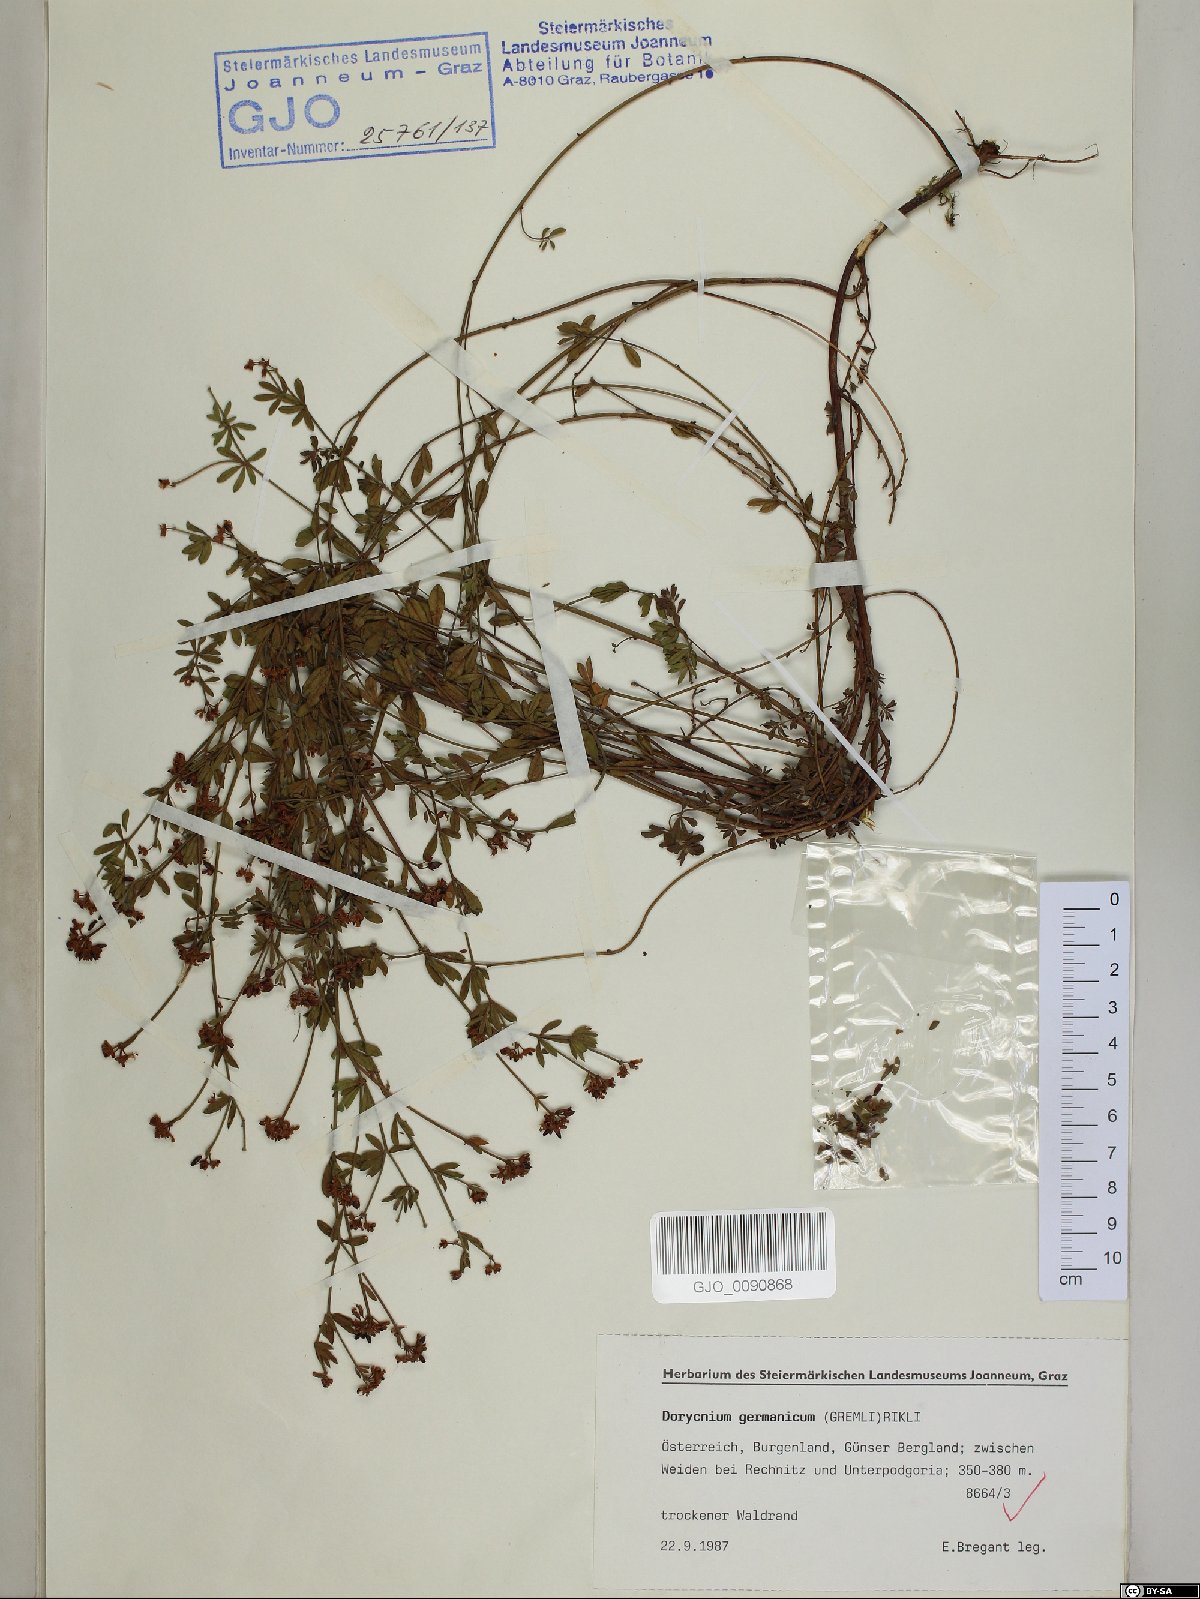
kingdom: Plantae
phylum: Tracheophyta
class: Magnoliopsida
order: Fabales
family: Fabaceae
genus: Lotus
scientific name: Lotus germanicus
